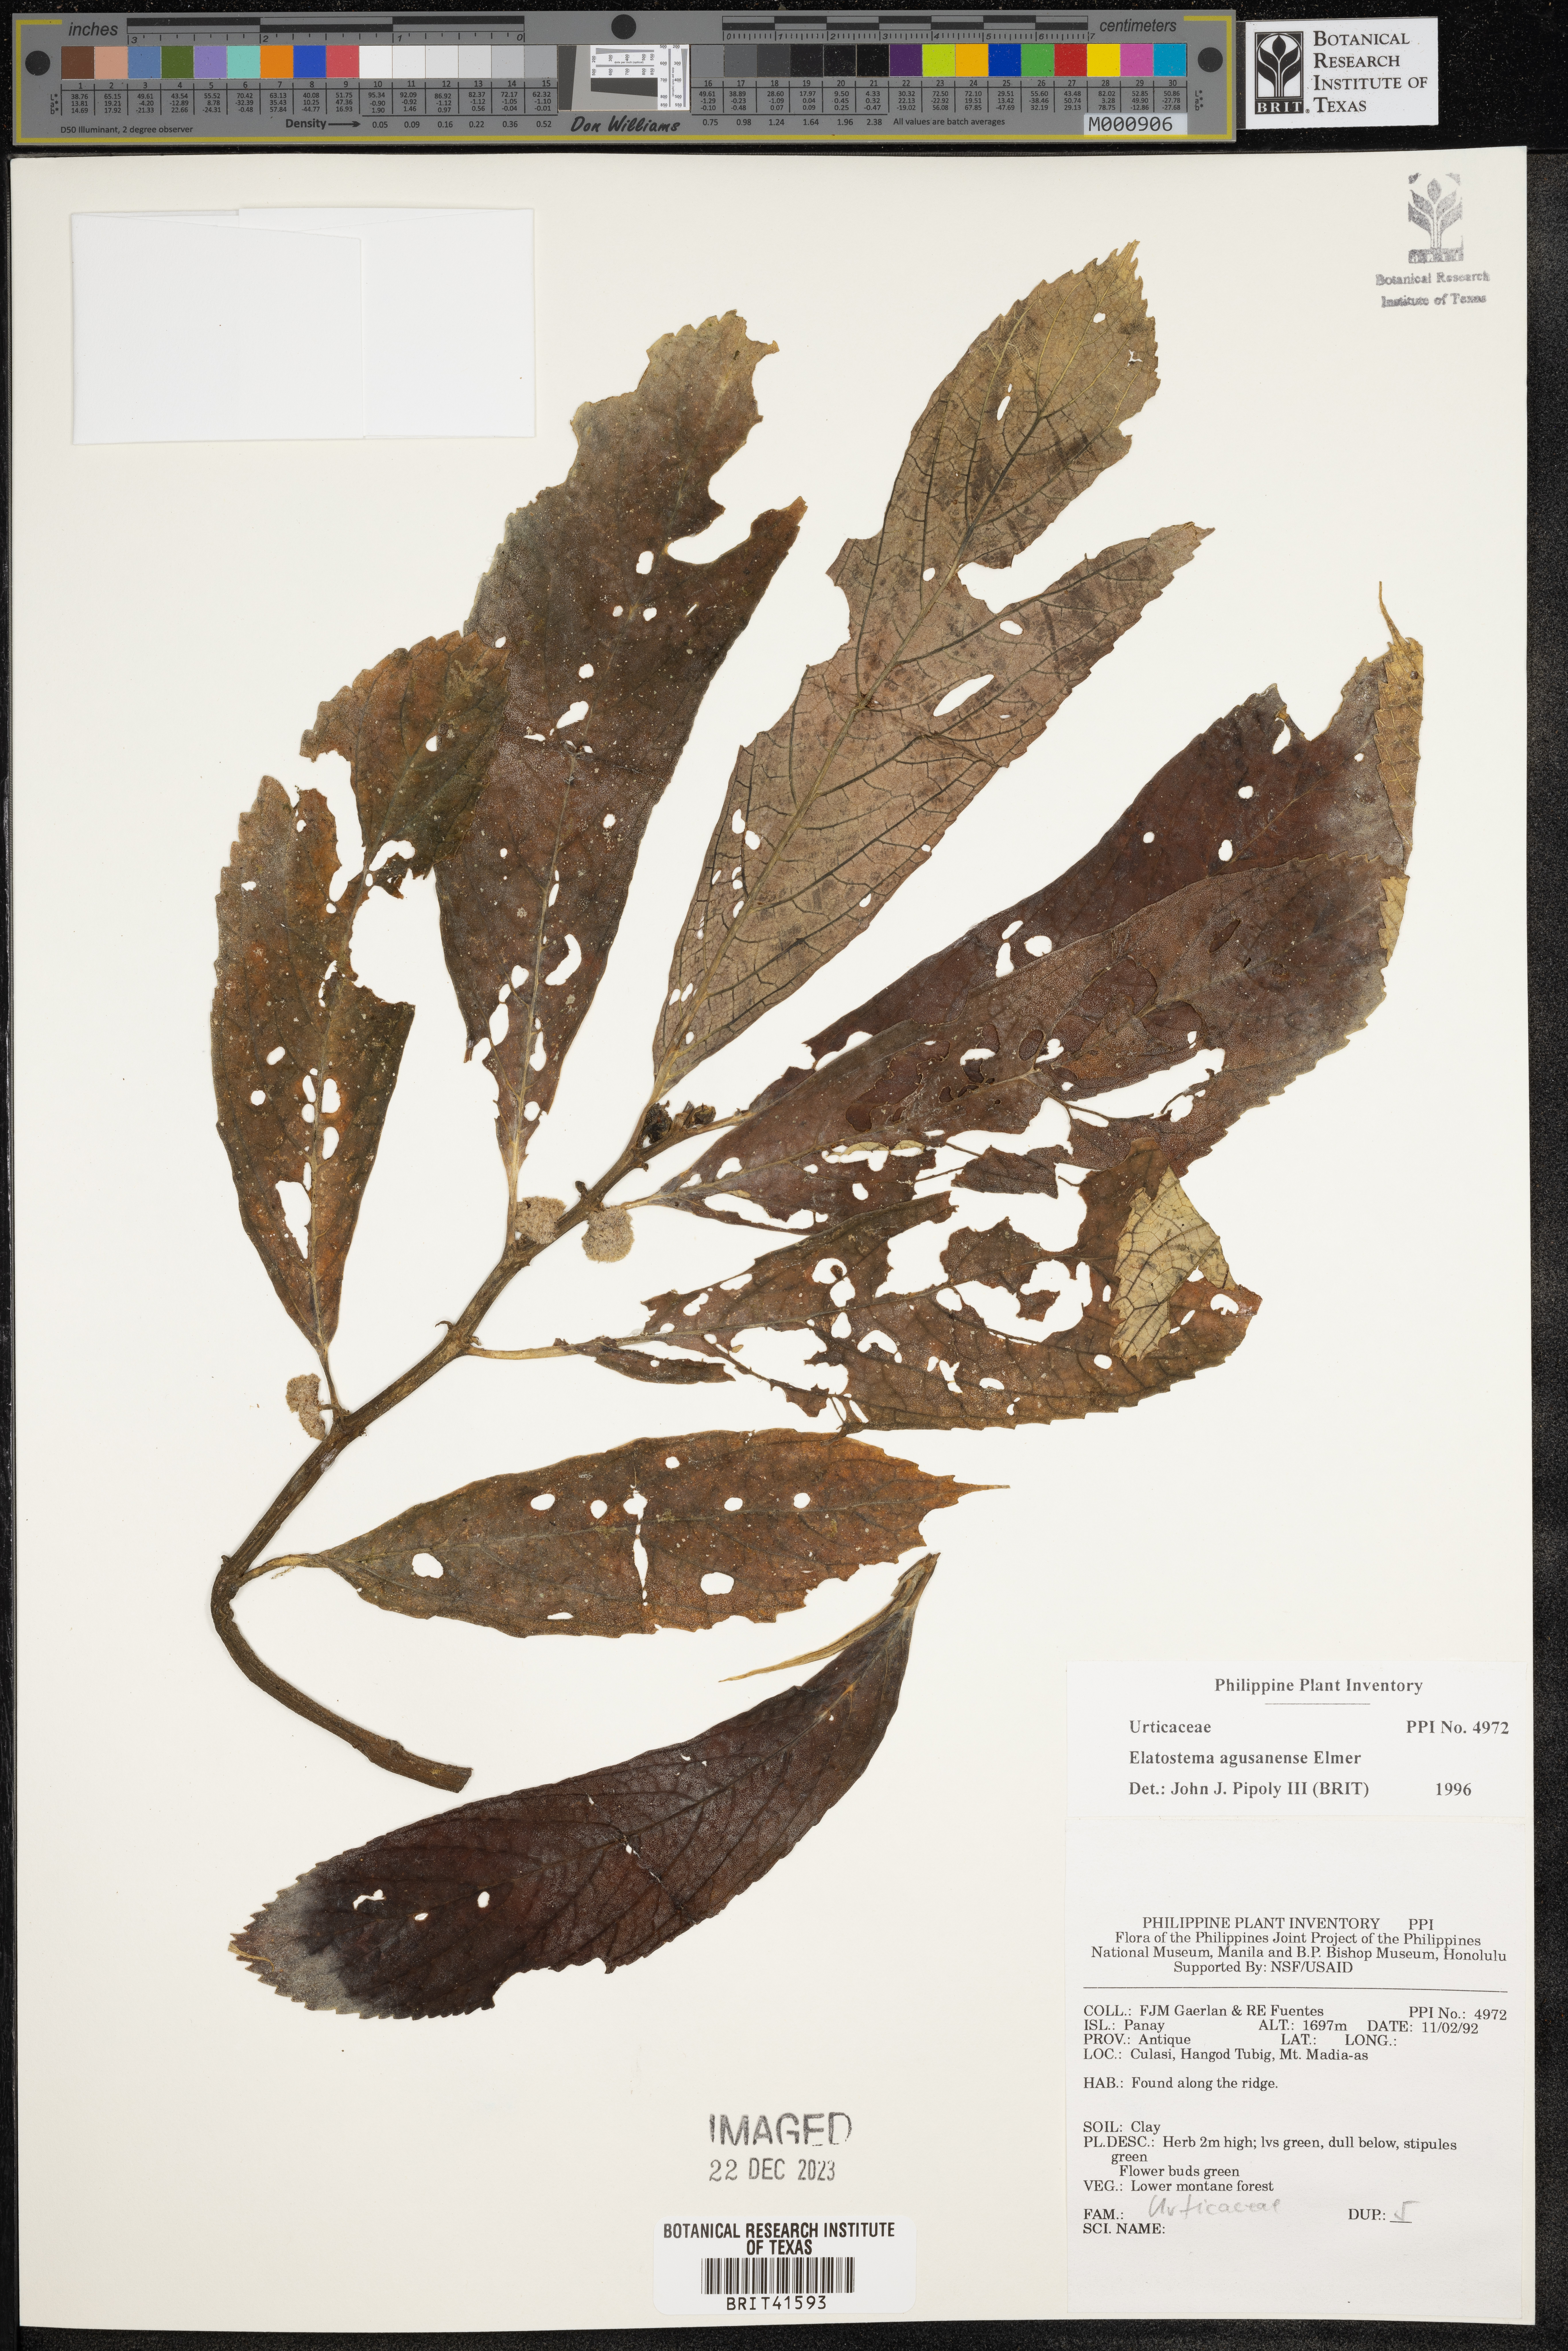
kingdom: Plantae
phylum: Tracheophyta
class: Magnoliopsida
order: Rosales
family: Urticaceae
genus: Elatostema
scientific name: Elatostema agusanense
